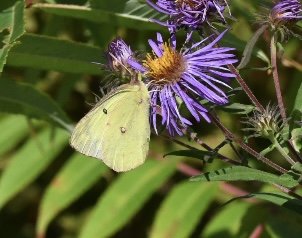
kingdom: Animalia
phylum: Arthropoda
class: Insecta
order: Lepidoptera
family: Pieridae
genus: Colias
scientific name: Colias philodice
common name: Clouded Sulphur
